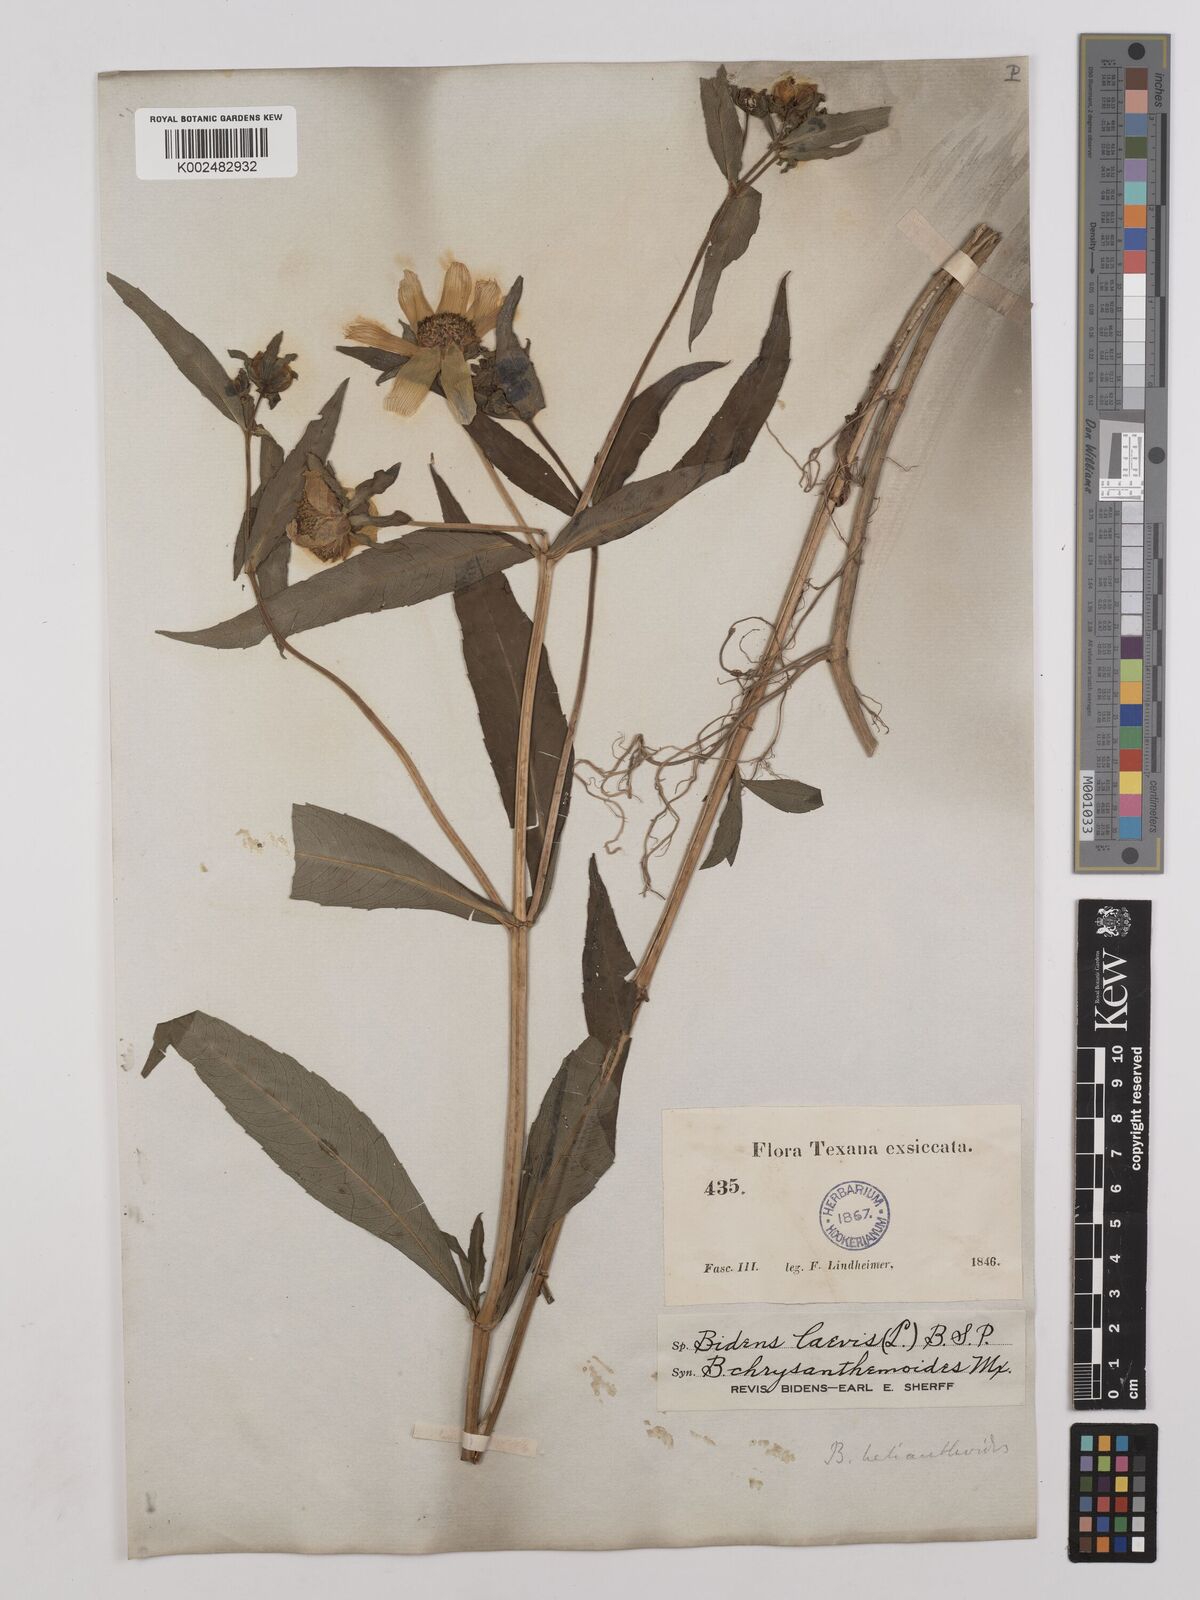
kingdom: Plantae
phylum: Tracheophyta
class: Magnoliopsida
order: Asterales
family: Asteraceae
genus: Bidens
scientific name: Bidens
